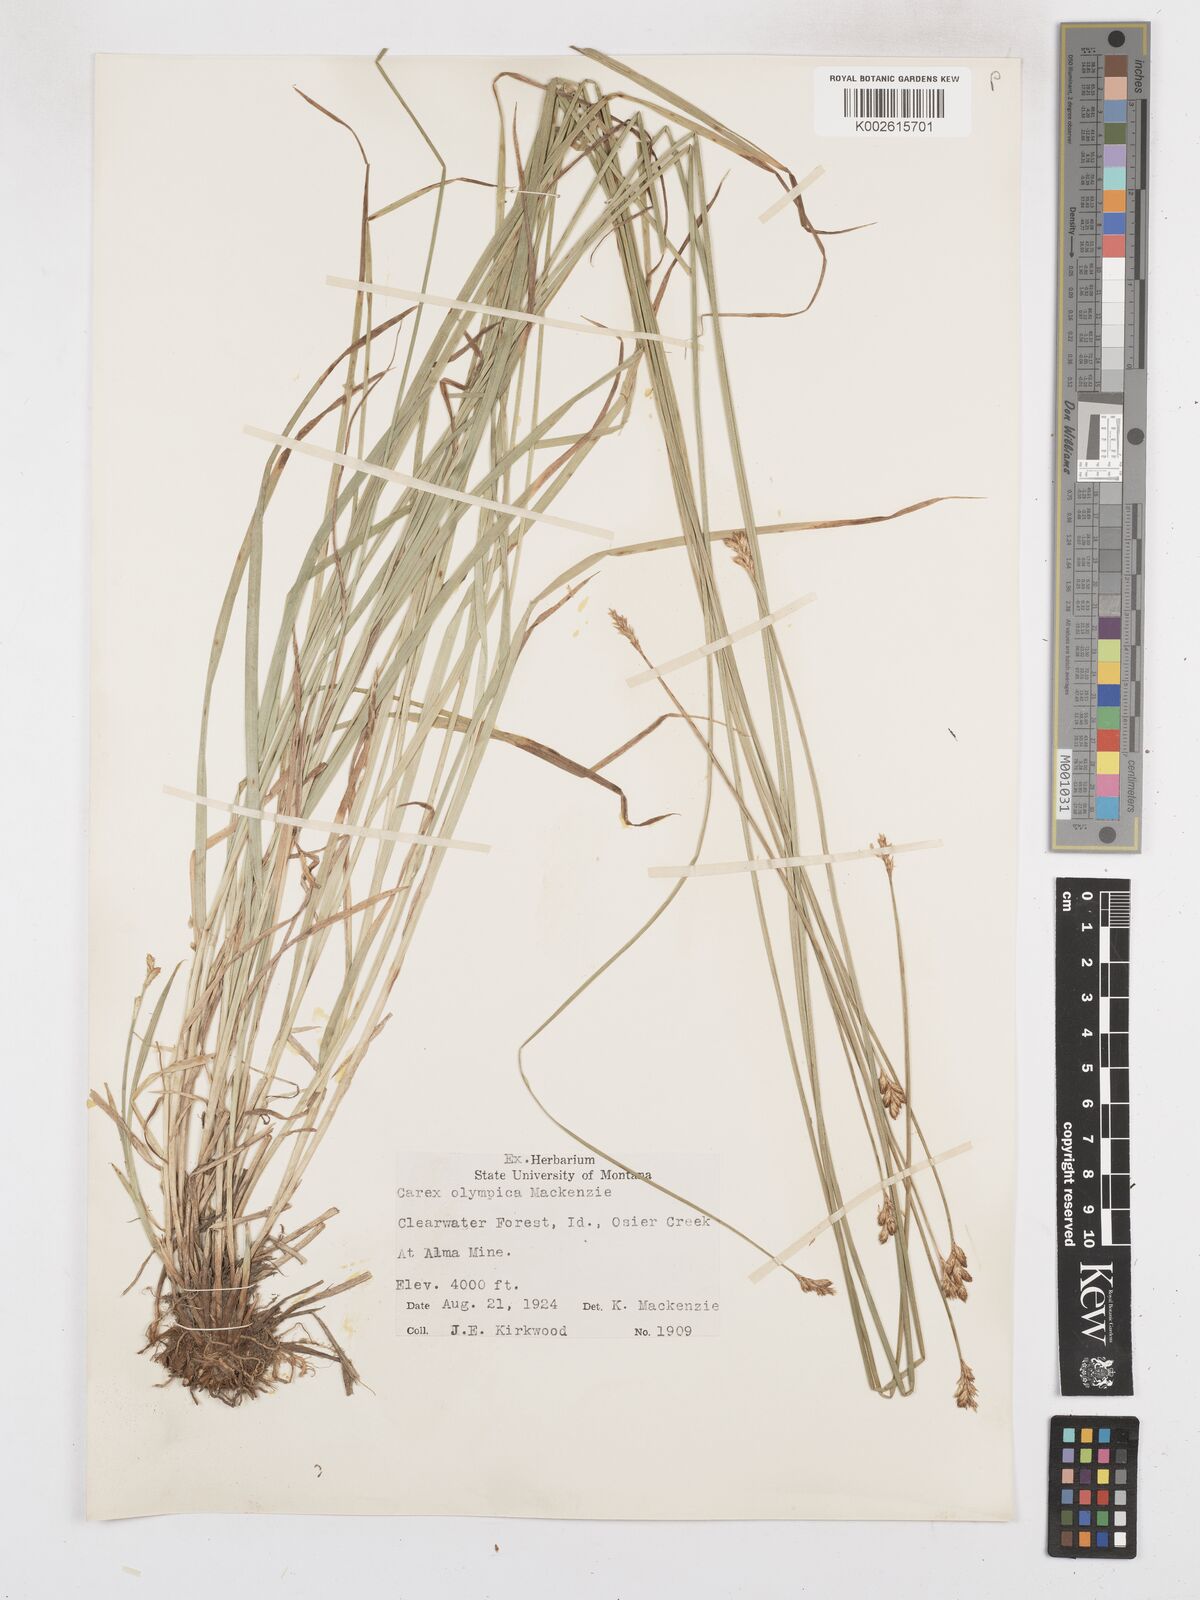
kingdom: Plantae
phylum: Tracheophyta
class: Liliopsida
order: Poales
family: Cyperaceae
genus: Carex
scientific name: Carex pachystachya
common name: Chamisso's sedge
